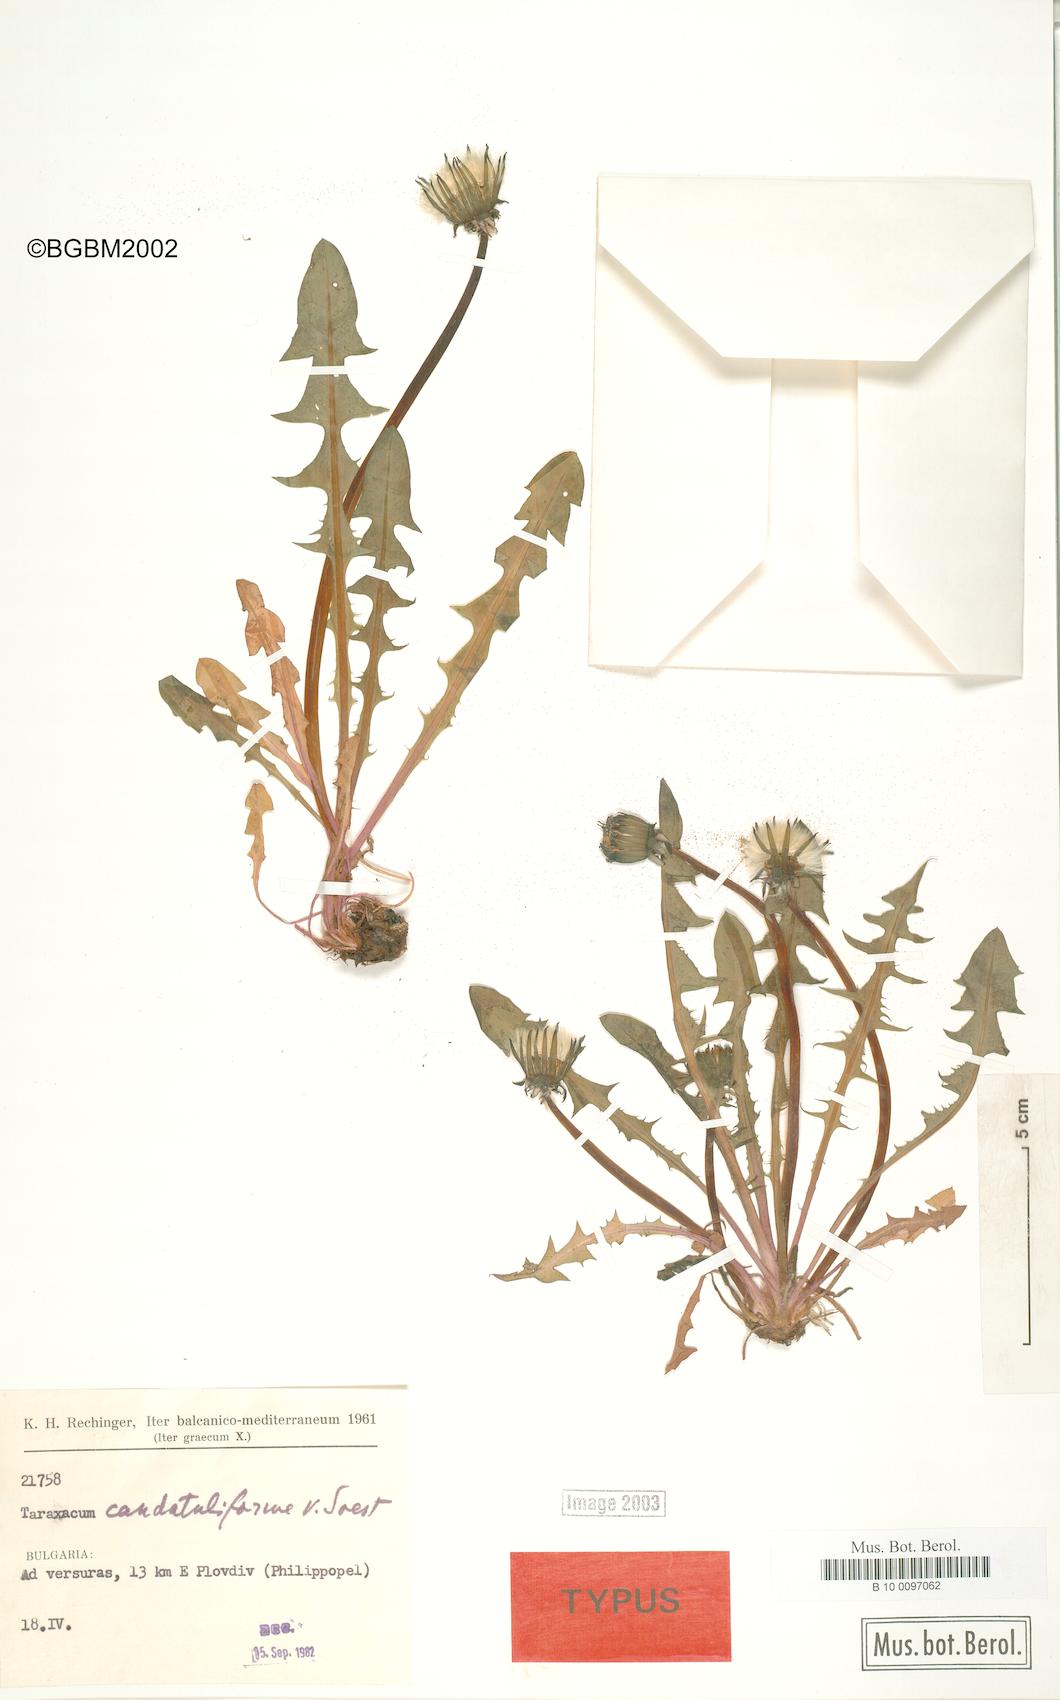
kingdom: Plantae
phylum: Tracheophyta
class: Magnoliopsida
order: Asterales
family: Asteraceae
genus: Taraxacum
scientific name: Taraxacum caudatuliforme
